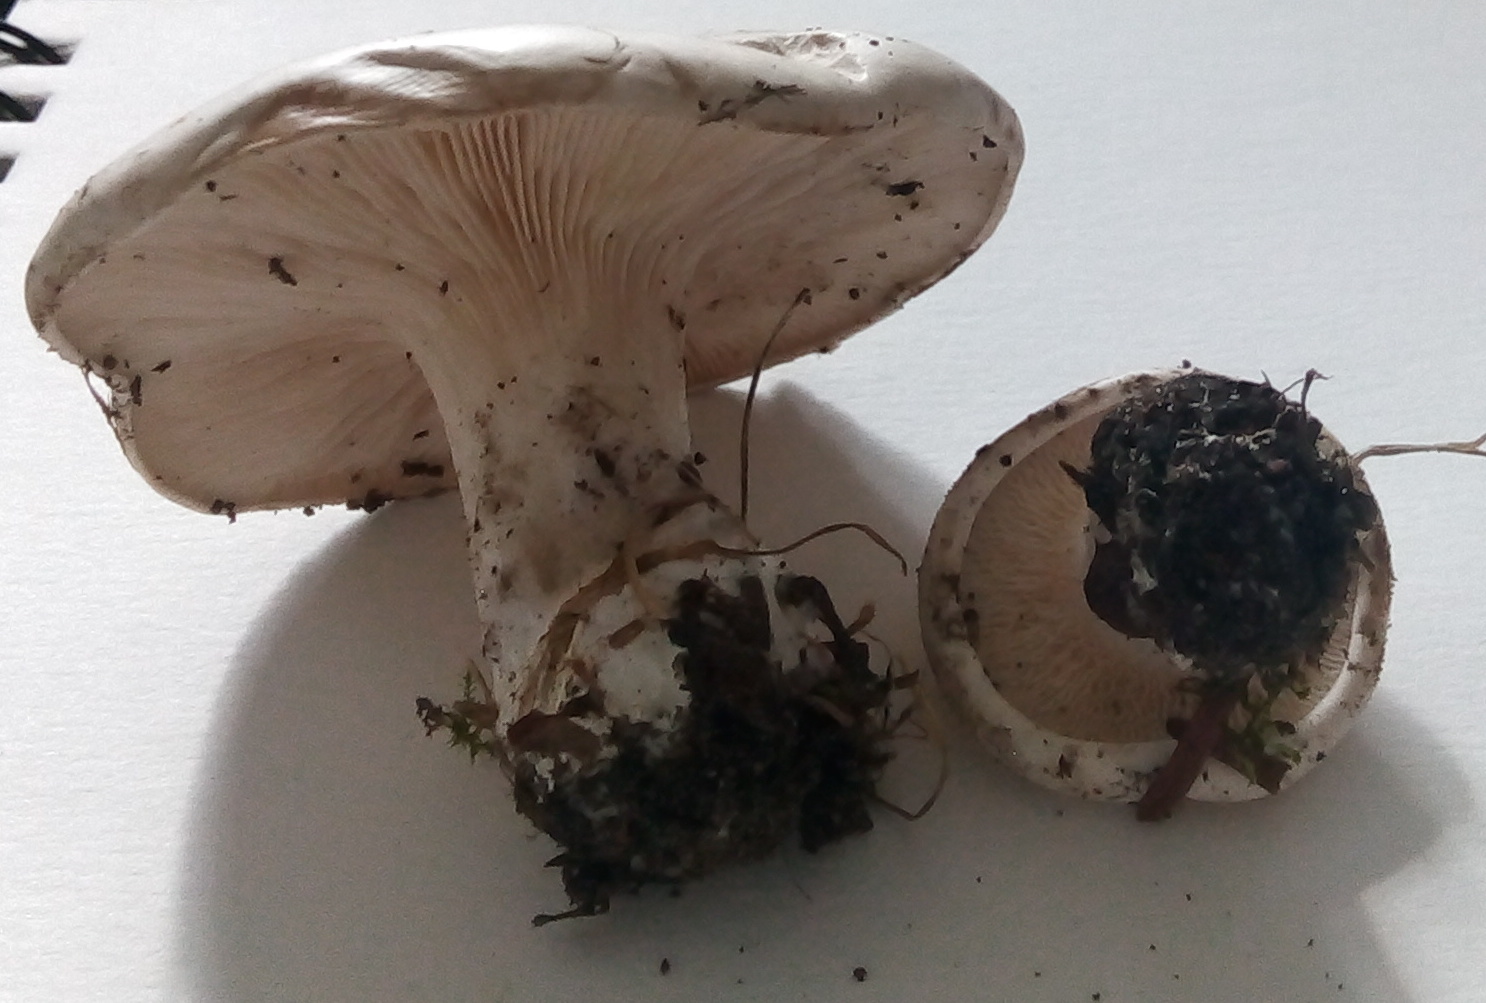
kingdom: Fungi
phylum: Basidiomycota
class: Agaricomycetes
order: Agaricales
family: Entolomataceae
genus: Clitopilus
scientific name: Clitopilus prunulus
